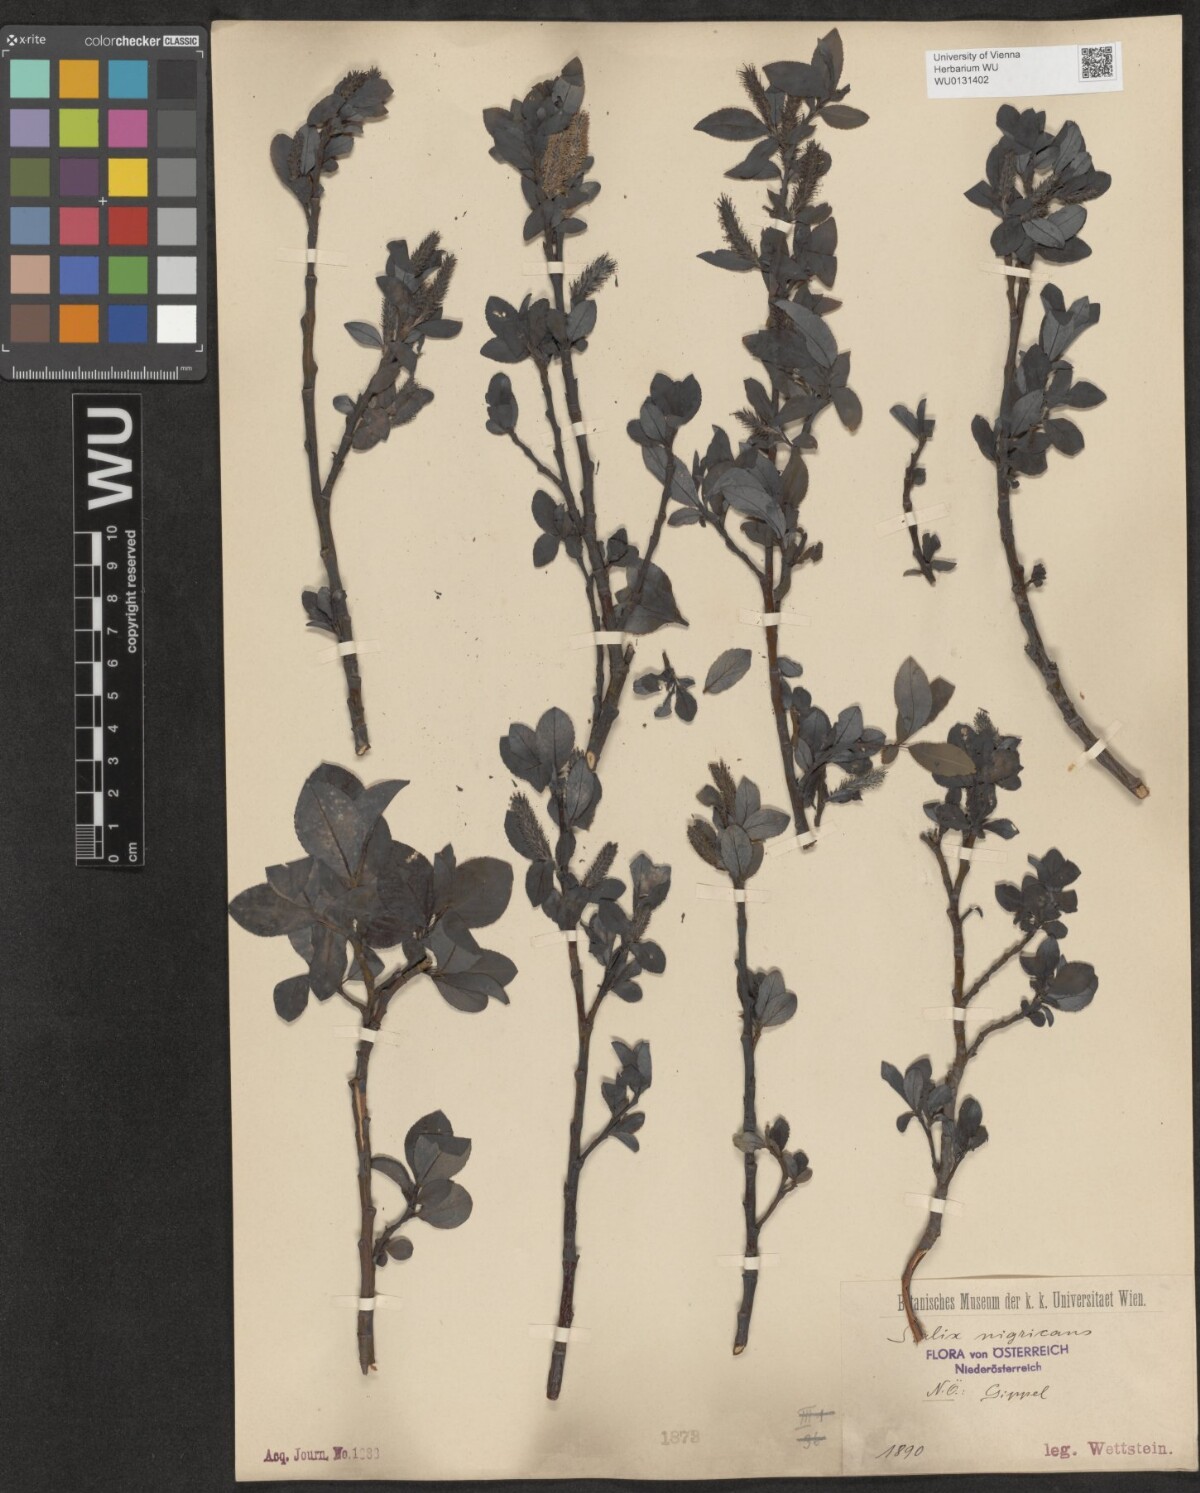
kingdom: Plantae
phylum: Tracheophyta
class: Magnoliopsida
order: Malpighiales
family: Salicaceae
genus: Salix
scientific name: Salix myrsinifolia
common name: Dark-leaved willow
